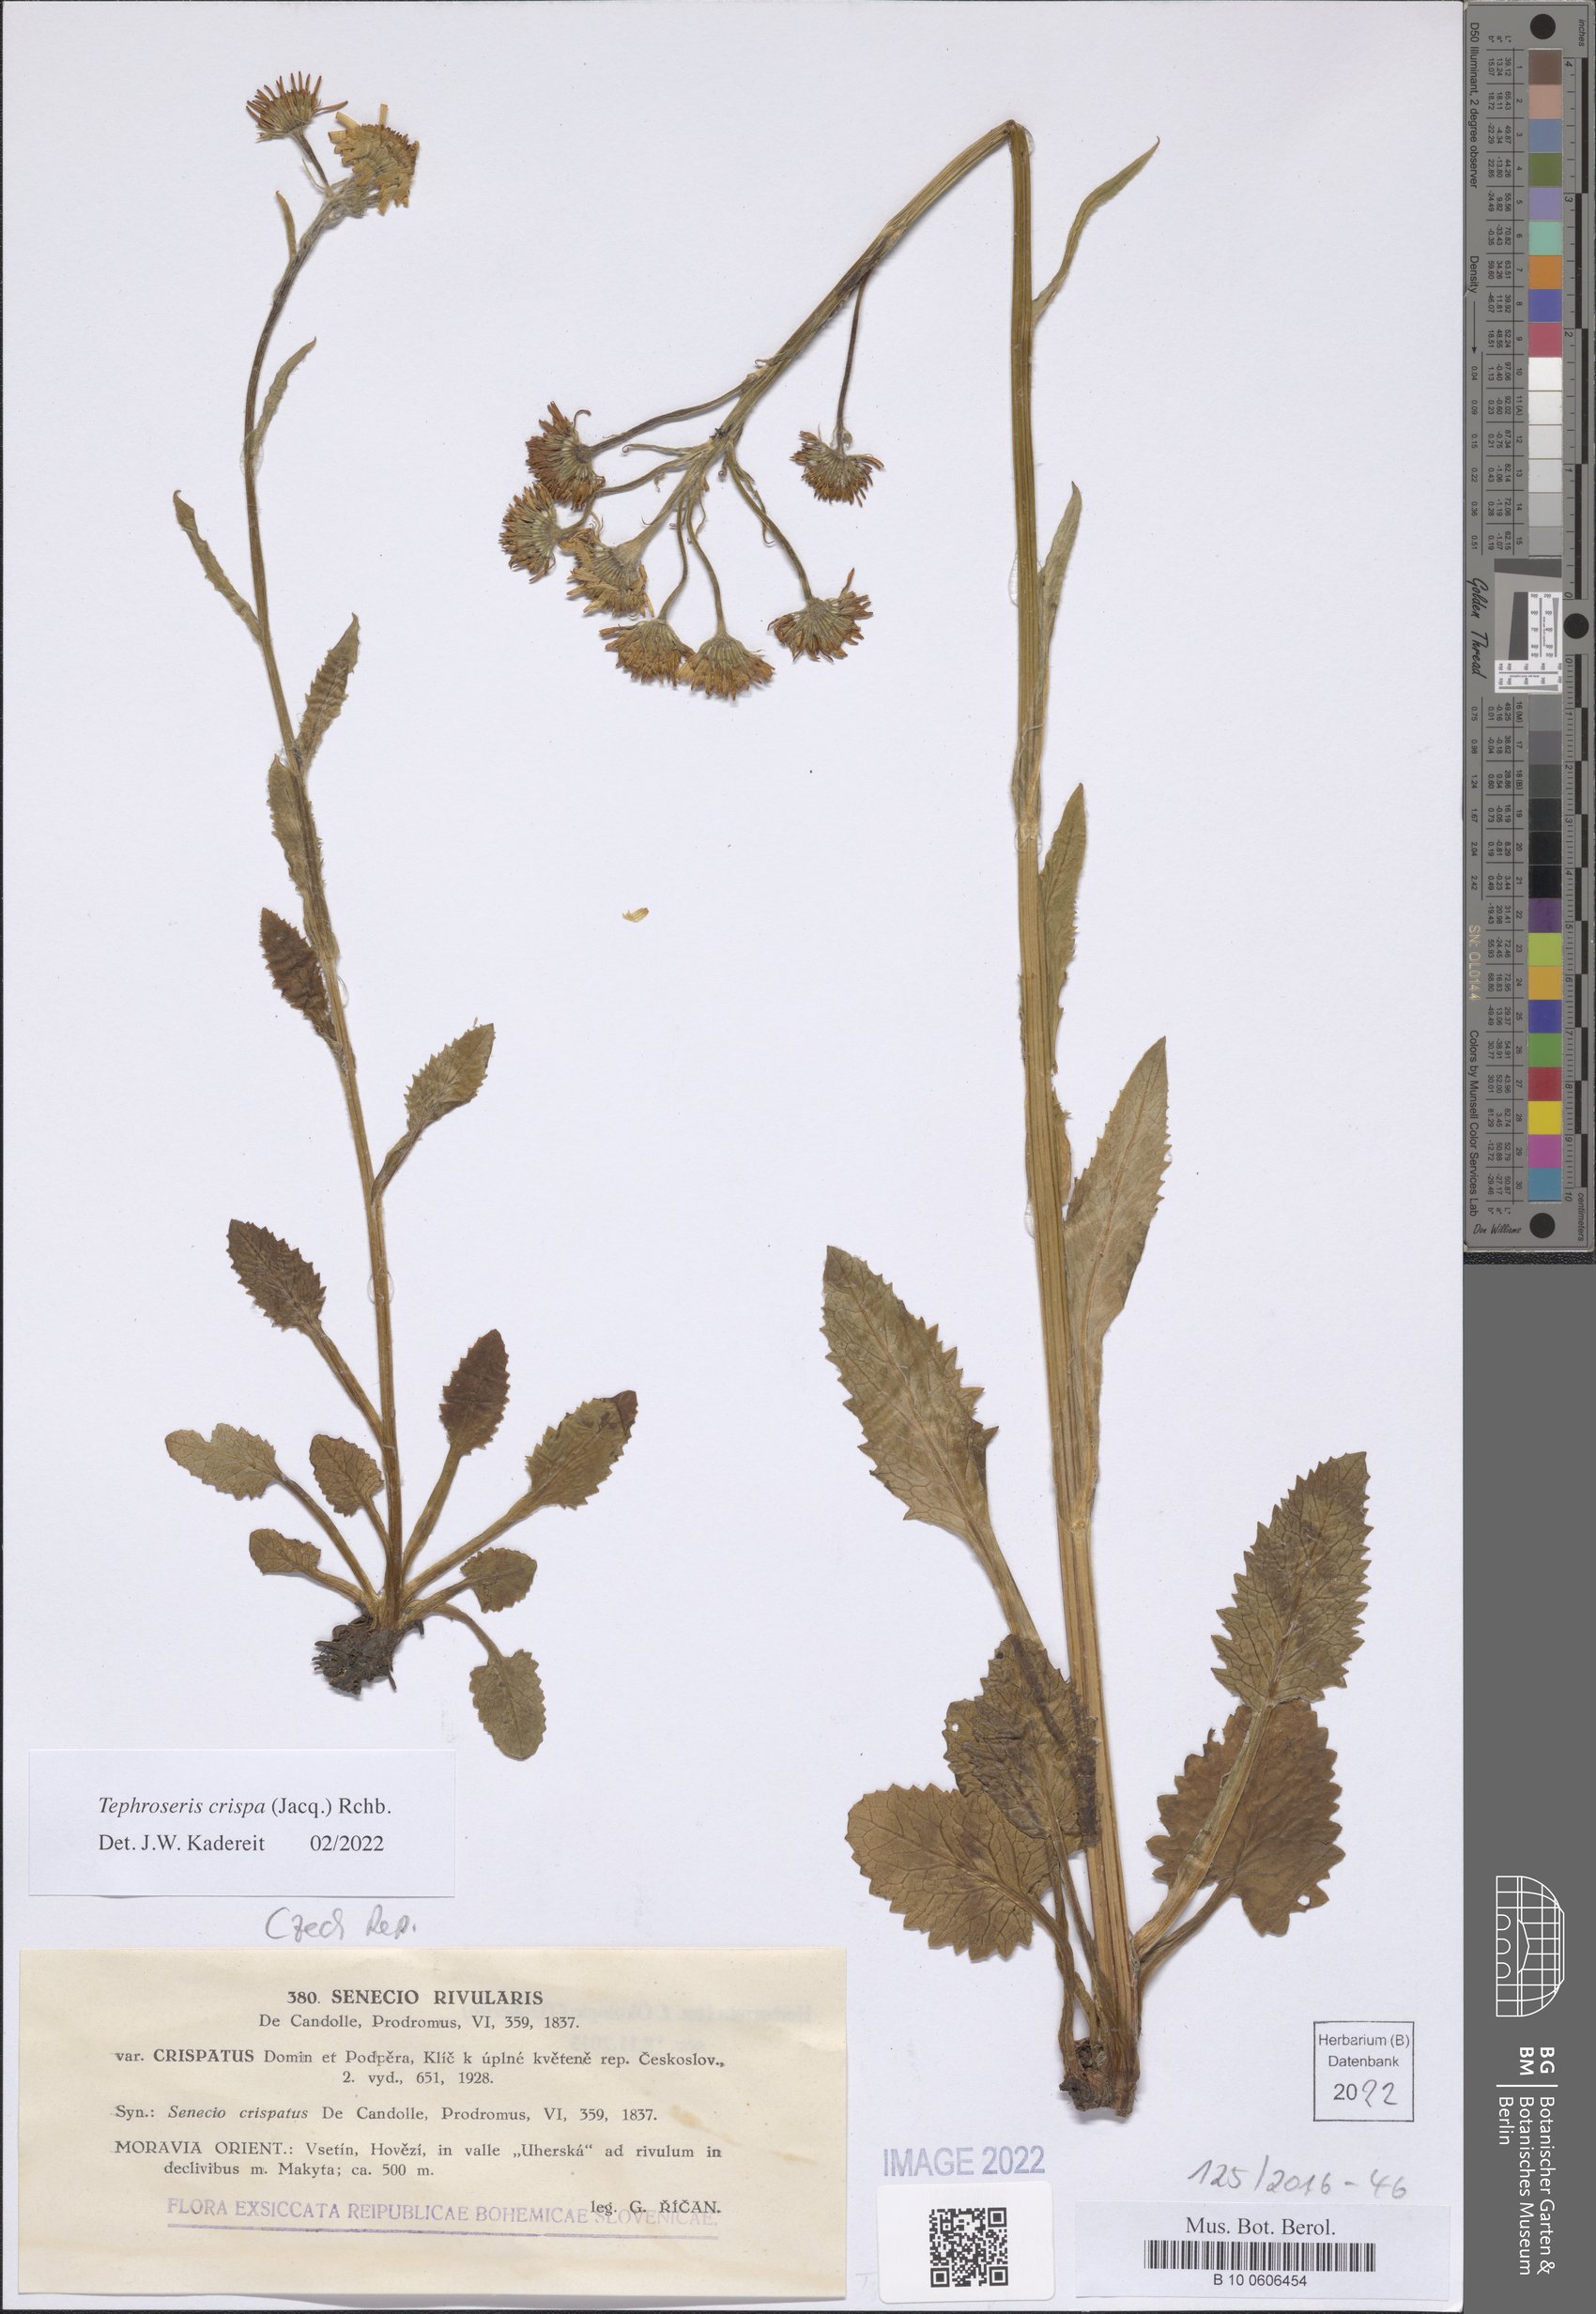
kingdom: Plantae
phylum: Tracheophyta
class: Magnoliopsida
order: Asterales
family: Asteraceae
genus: Tephroseris
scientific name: Tephroseris crispa
